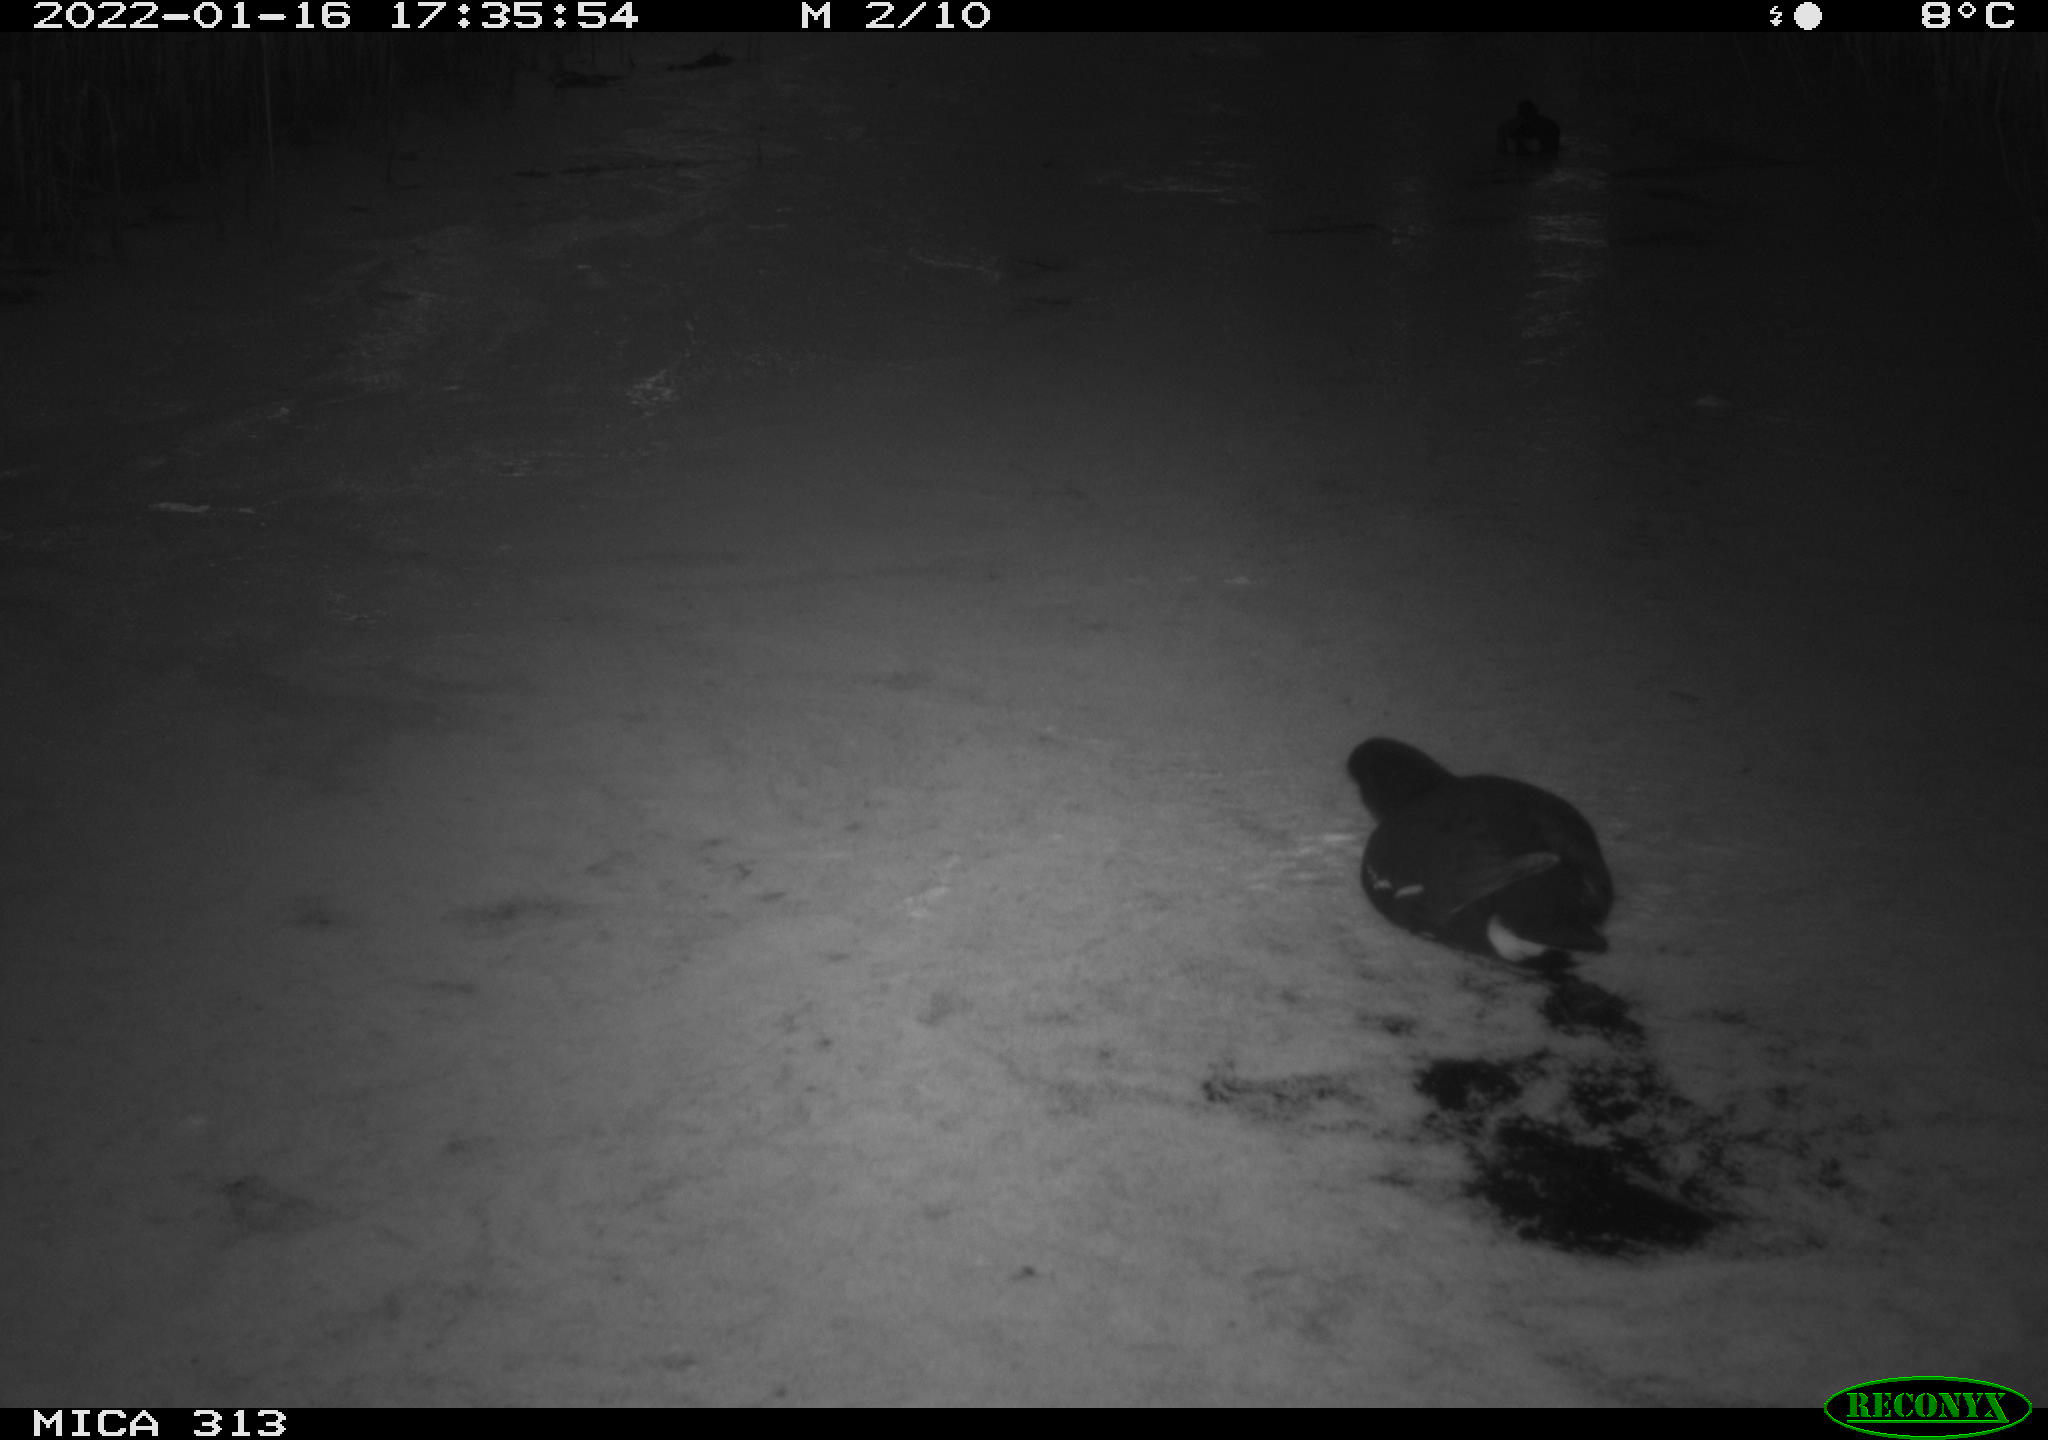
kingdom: Animalia
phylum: Chordata
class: Aves
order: Gruiformes
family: Rallidae
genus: Fulica
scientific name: Fulica atra
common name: Eurasian coot
